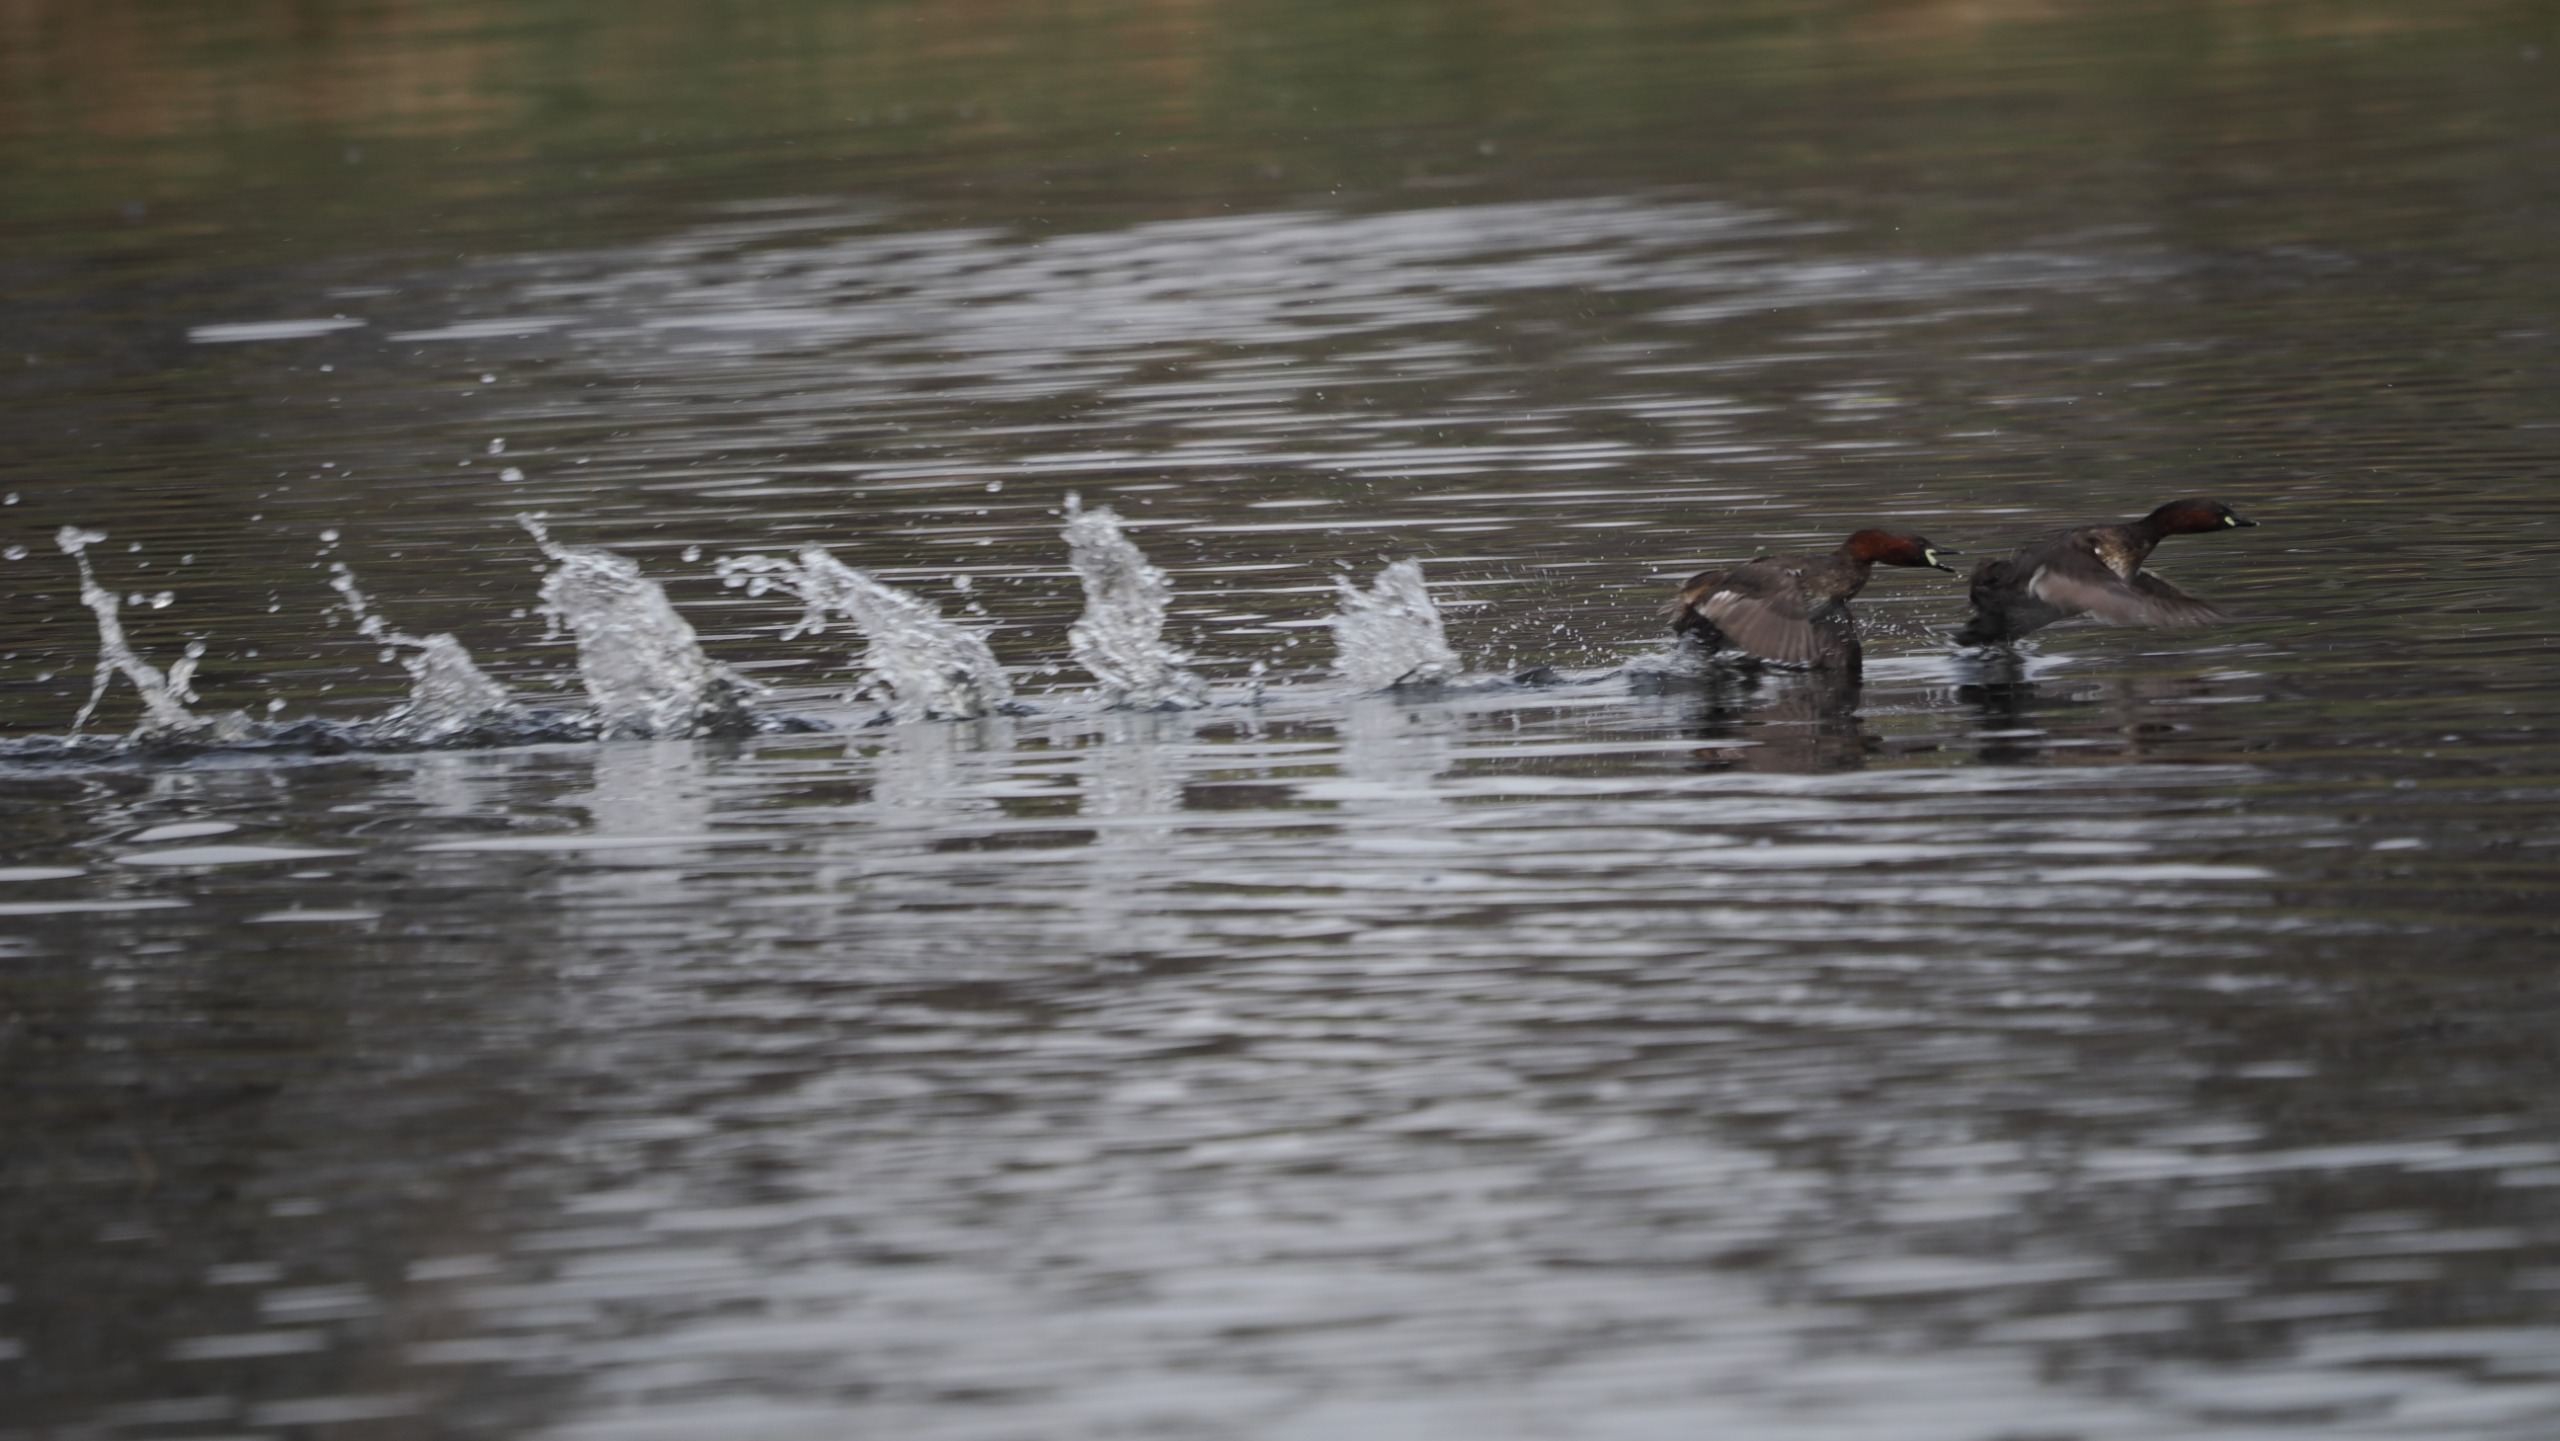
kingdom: Animalia
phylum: Chordata
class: Aves
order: Podicipediformes
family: Podicipedidae
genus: Tachybaptus
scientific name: Tachybaptus ruficollis
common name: Lille lappedykker
